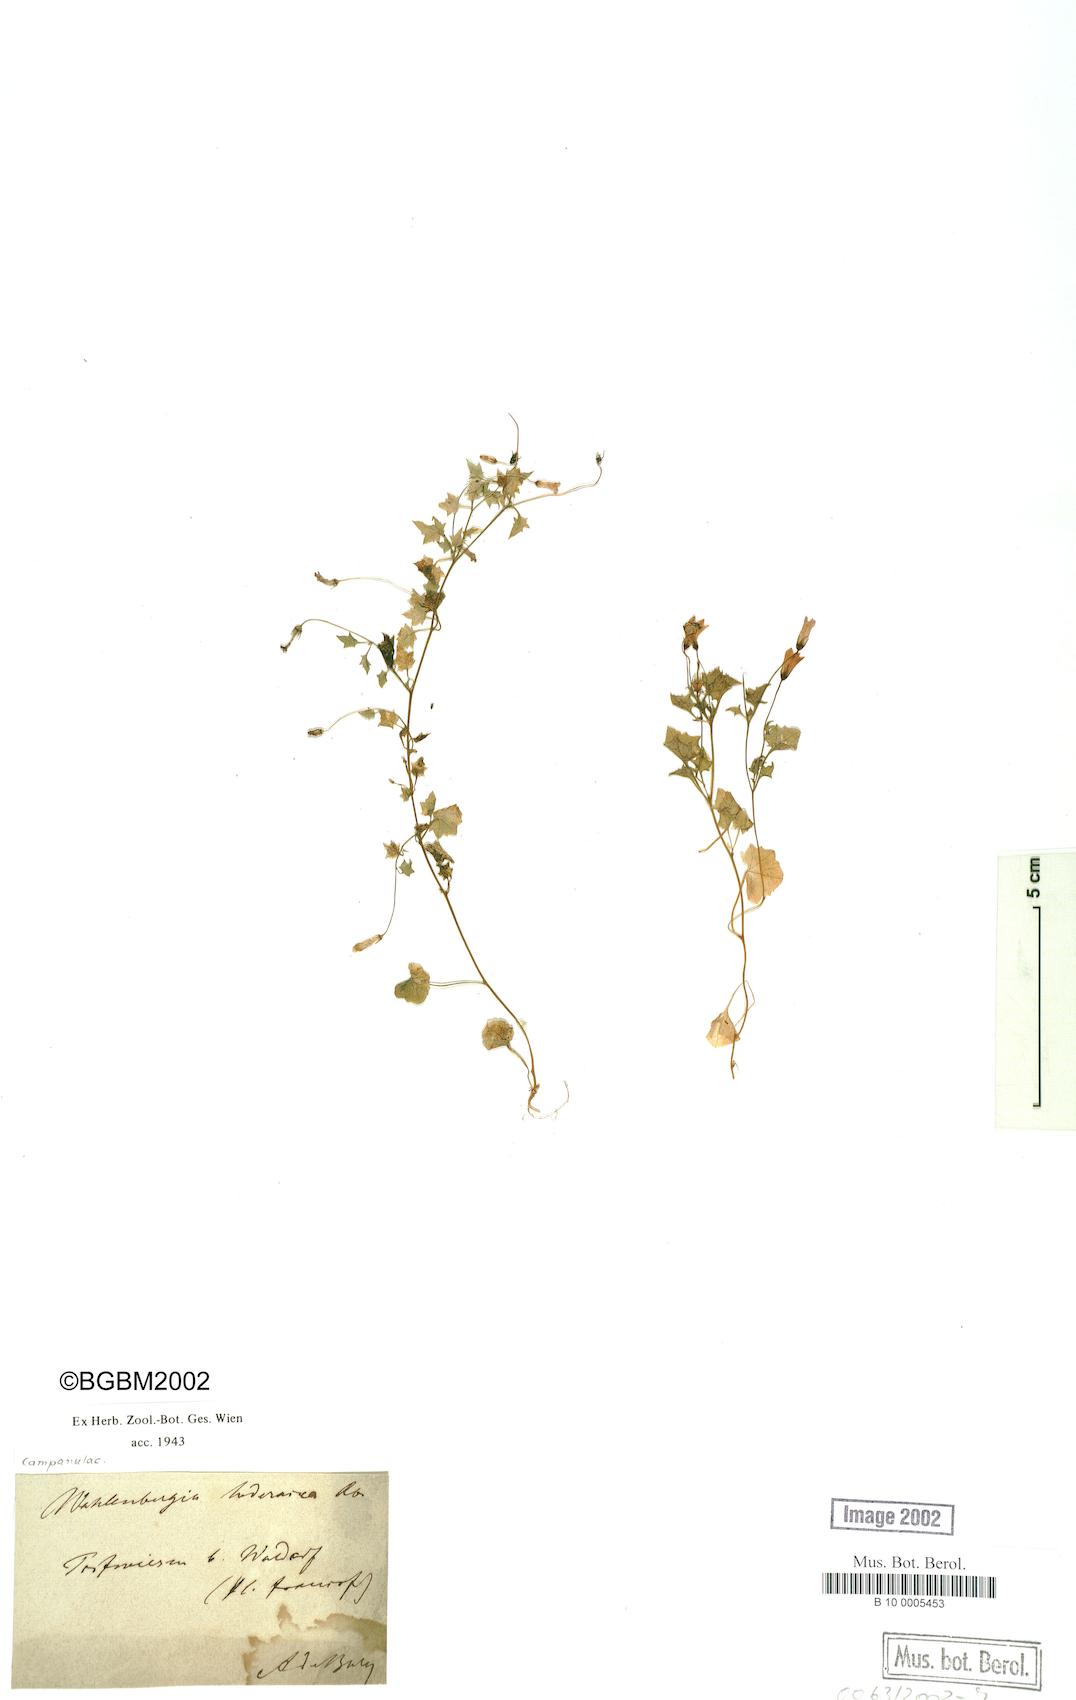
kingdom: Plantae
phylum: Tracheophyta
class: Magnoliopsida
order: Asterales
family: Campanulaceae
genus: Hesperocodon
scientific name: Hesperocodon hederaceus
